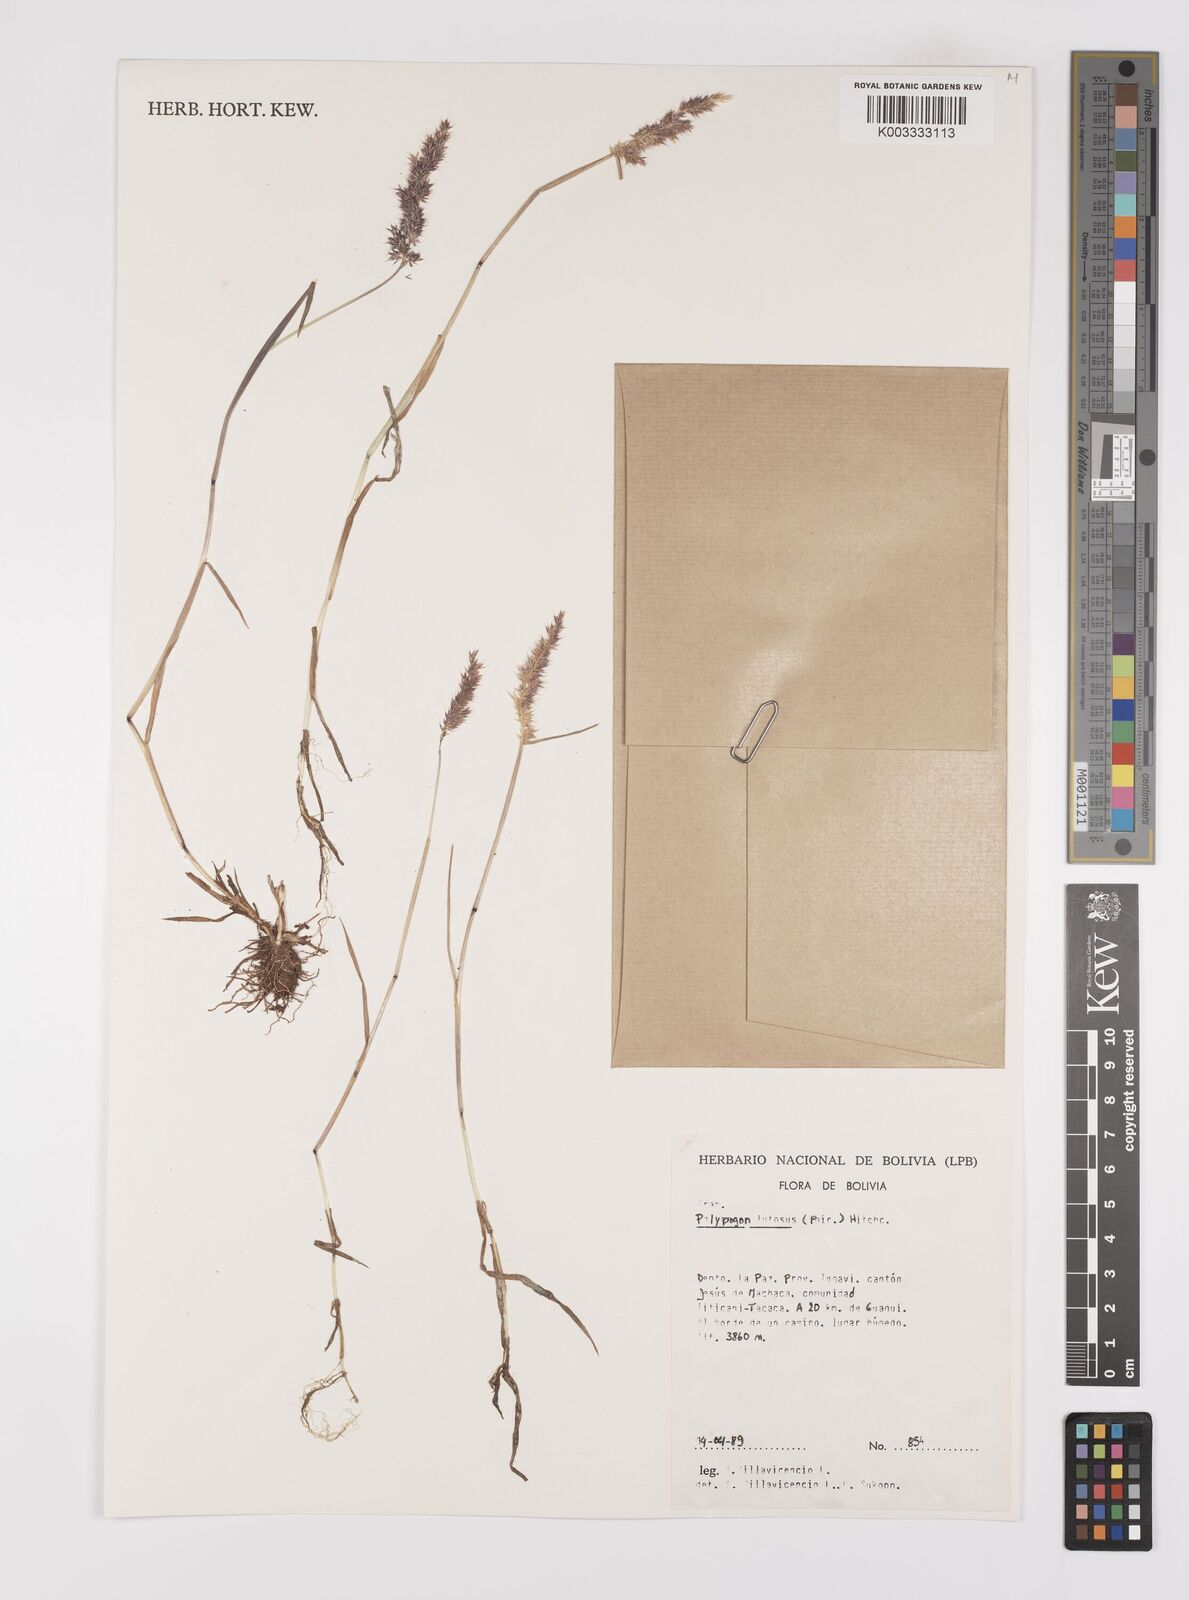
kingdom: Plantae
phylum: Tracheophyta
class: Liliopsida
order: Poales
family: Poaceae
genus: Polypogon
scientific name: Polypogon interruptus
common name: Ditch polypogon
